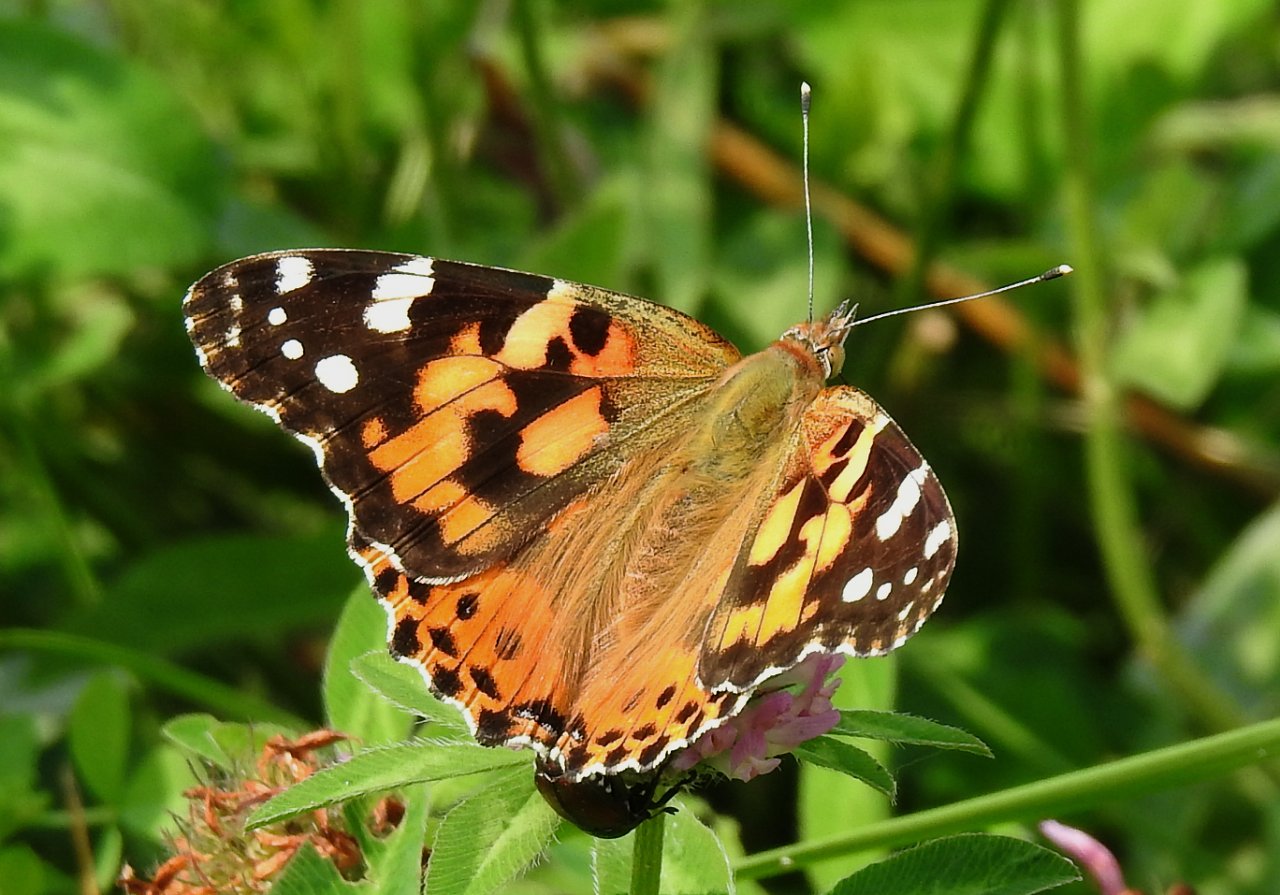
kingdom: Animalia
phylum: Arthropoda
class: Insecta
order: Lepidoptera
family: Nymphalidae
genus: Vanessa
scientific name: Vanessa cardui
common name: Painted Lady
